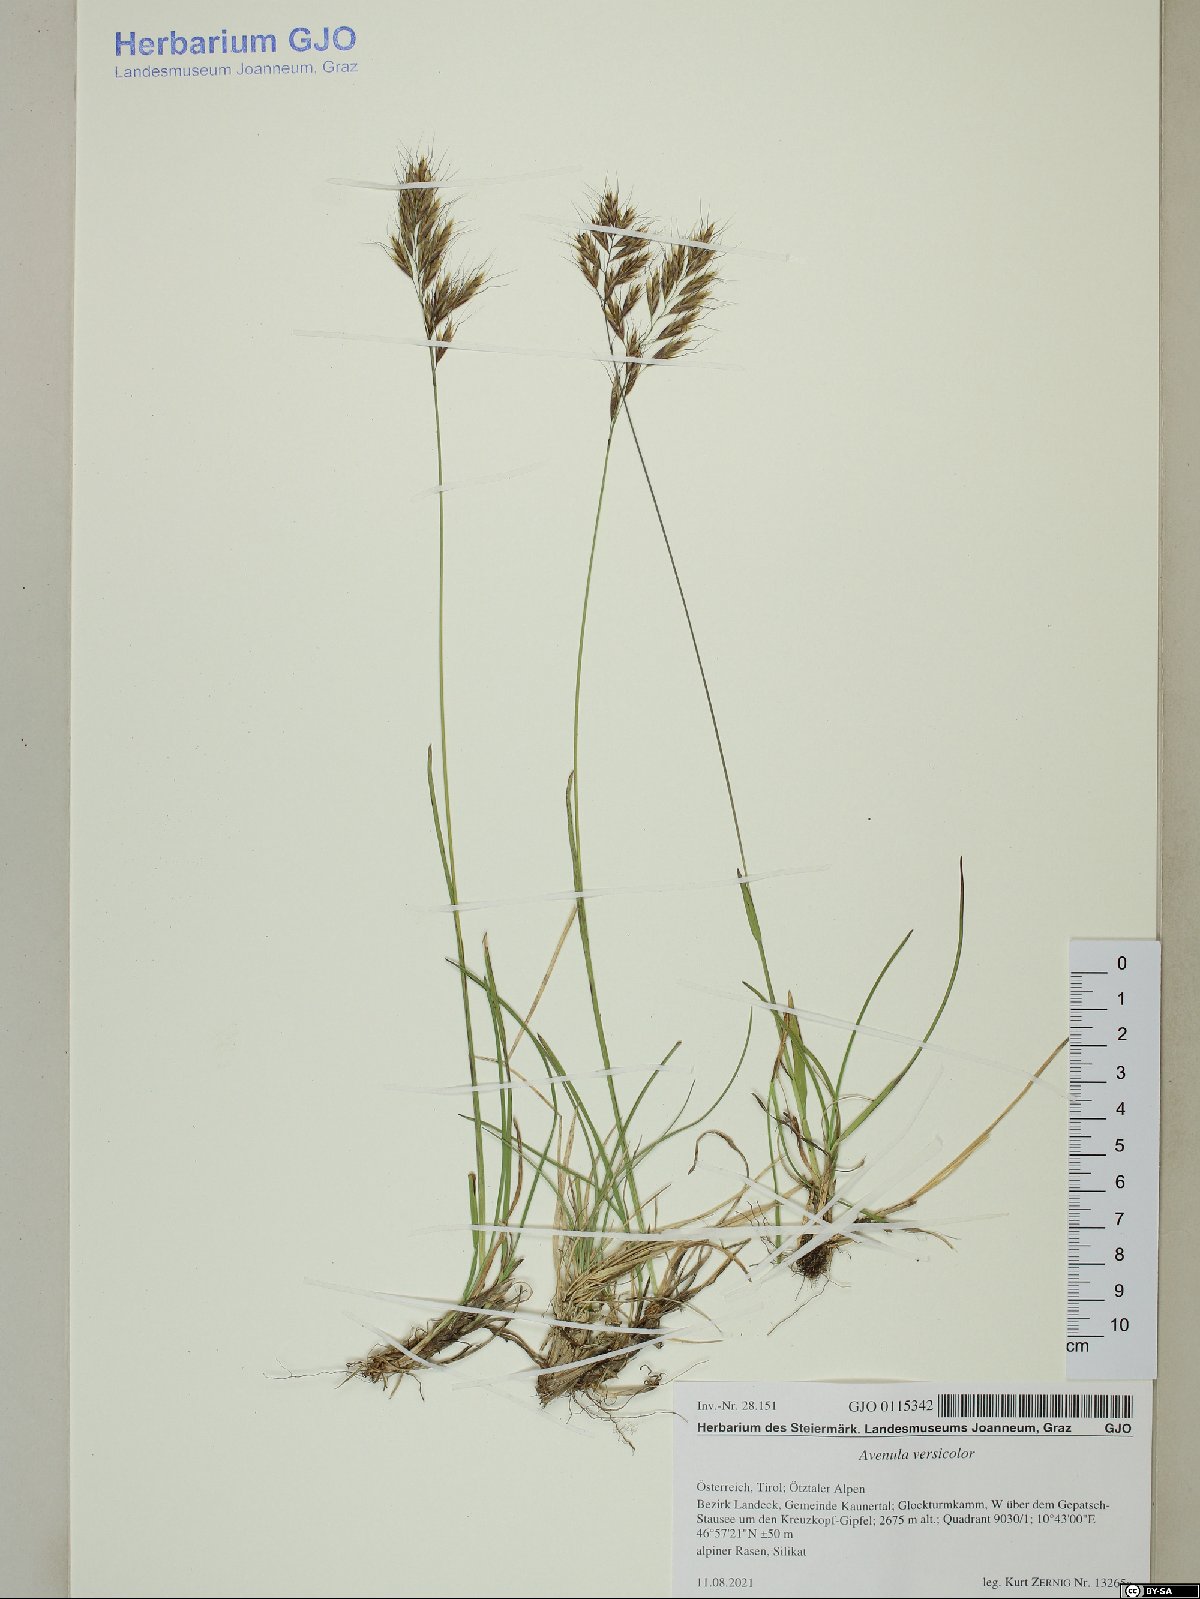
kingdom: Plantae
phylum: Tracheophyta
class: Liliopsida
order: Poales
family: Poaceae
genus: Helictochloa
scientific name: Helictochloa versicolor
